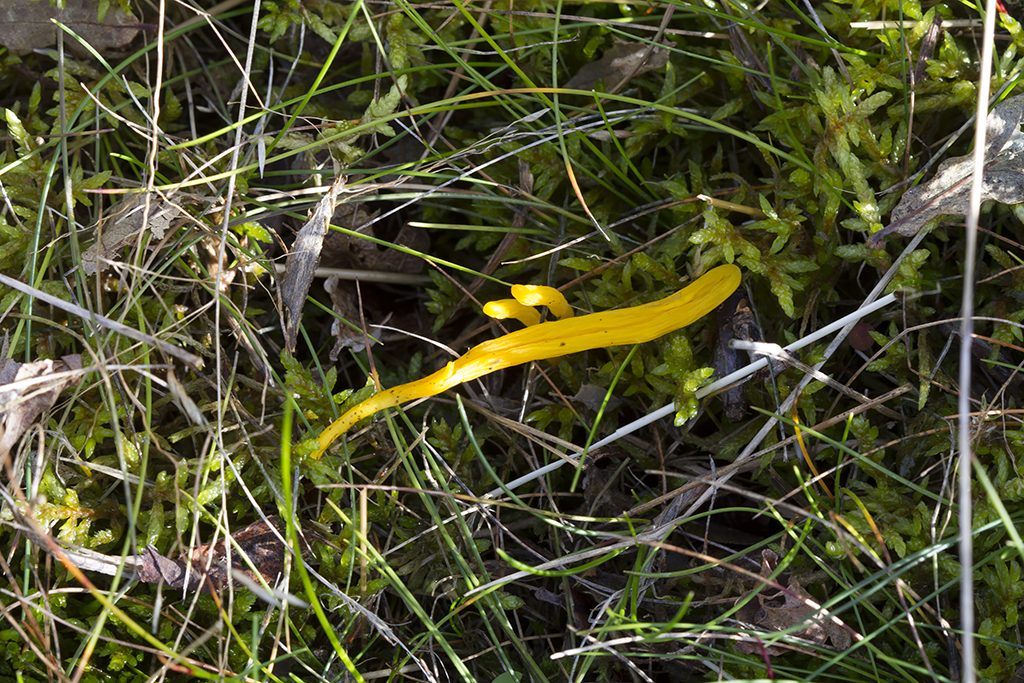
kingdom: Fungi
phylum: Basidiomycota
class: Agaricomycetes
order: Agaricales
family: Clavariaceae
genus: Clavulinopsis
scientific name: Clavulinopsis helvola
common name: orangegul køllesvamp
